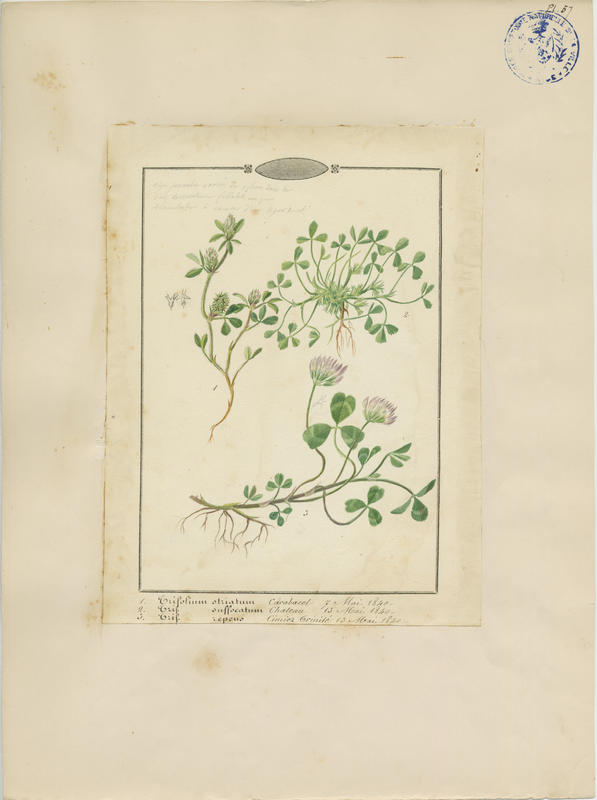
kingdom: Plantae
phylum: Tracheophyta
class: Magnoliopsida
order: Fabales
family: Fabaceae
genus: Trifolium
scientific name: Trifolium repens
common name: White clover
